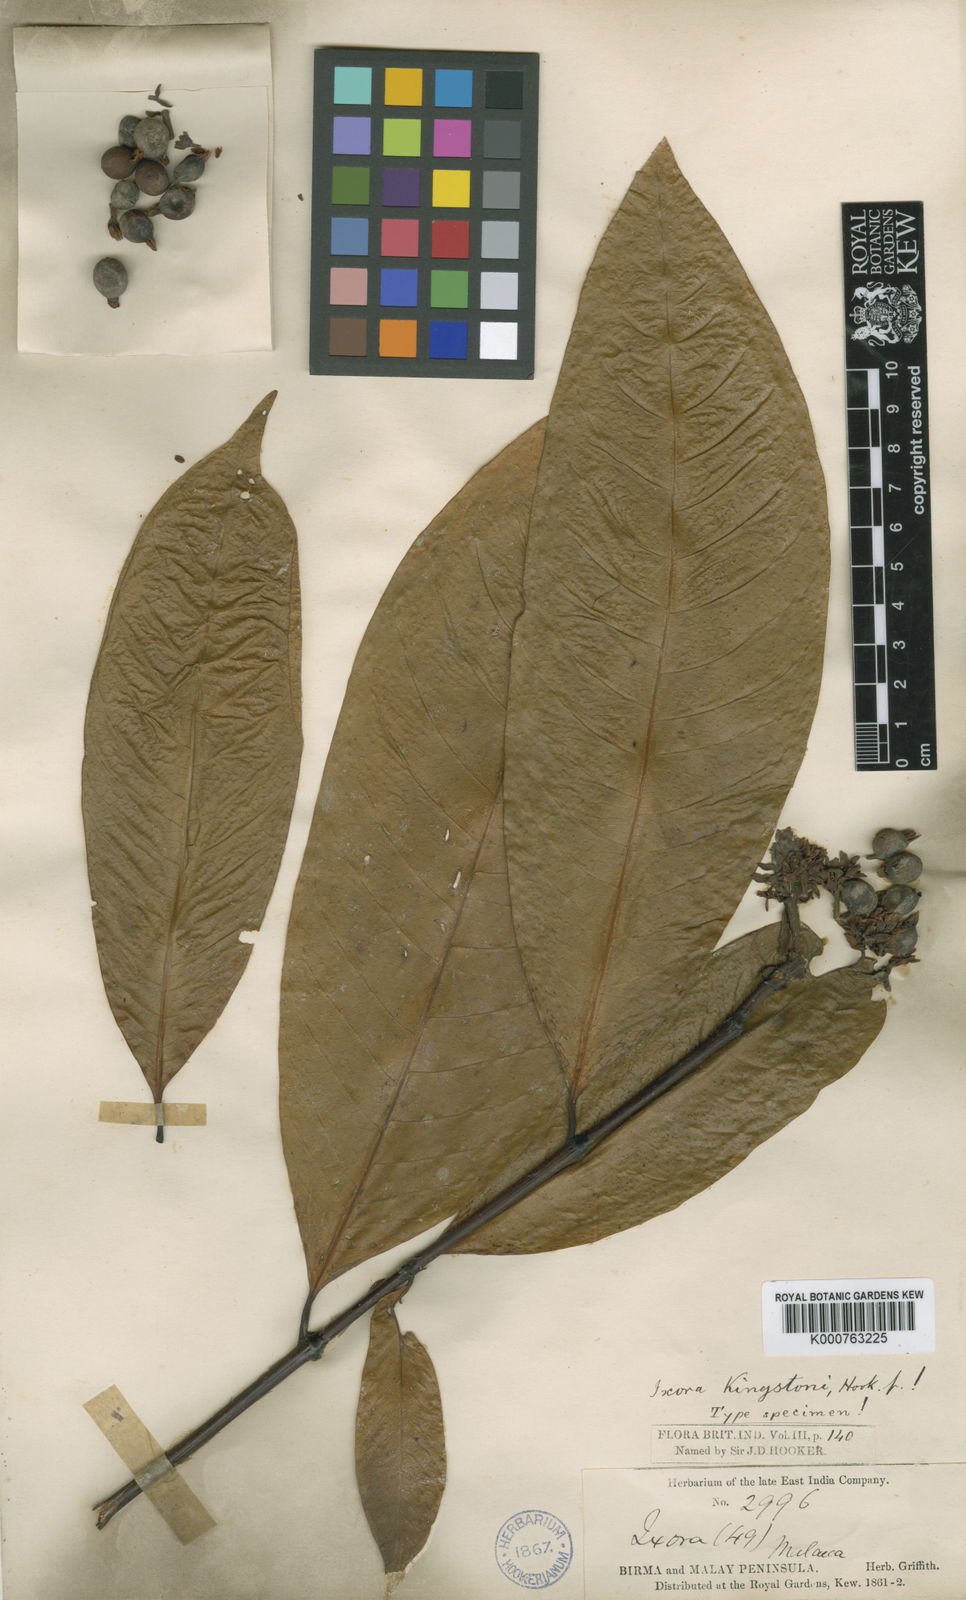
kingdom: Plantae
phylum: Tracheophyta
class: Magnoliopsida
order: Gentianales
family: Rubiaceae
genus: Ixora
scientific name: Ixora kingstoni
